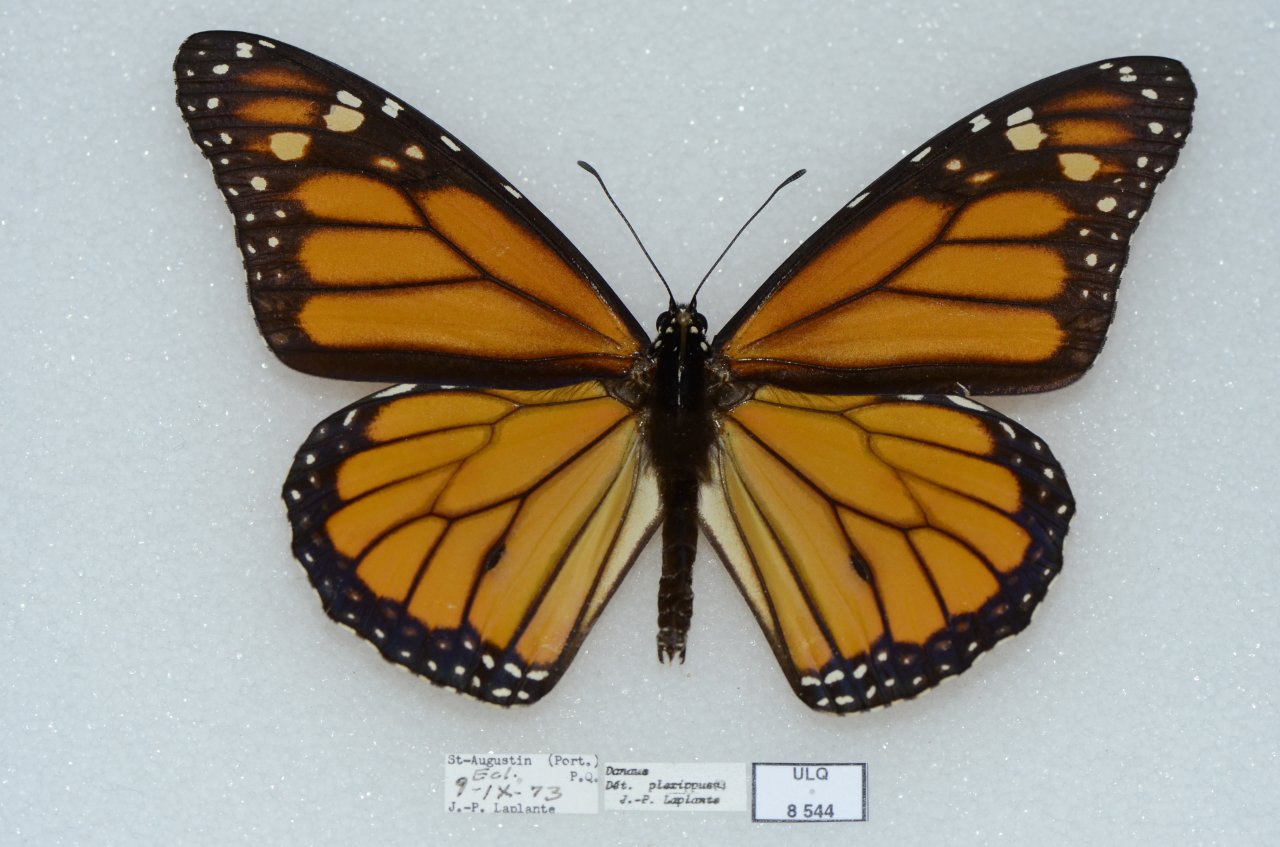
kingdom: Animalia
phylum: Arthropoda
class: Insecta
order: Lepidoptera
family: Nymphalidae
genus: Danaus
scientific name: Danaus plexippus
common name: Monarch
